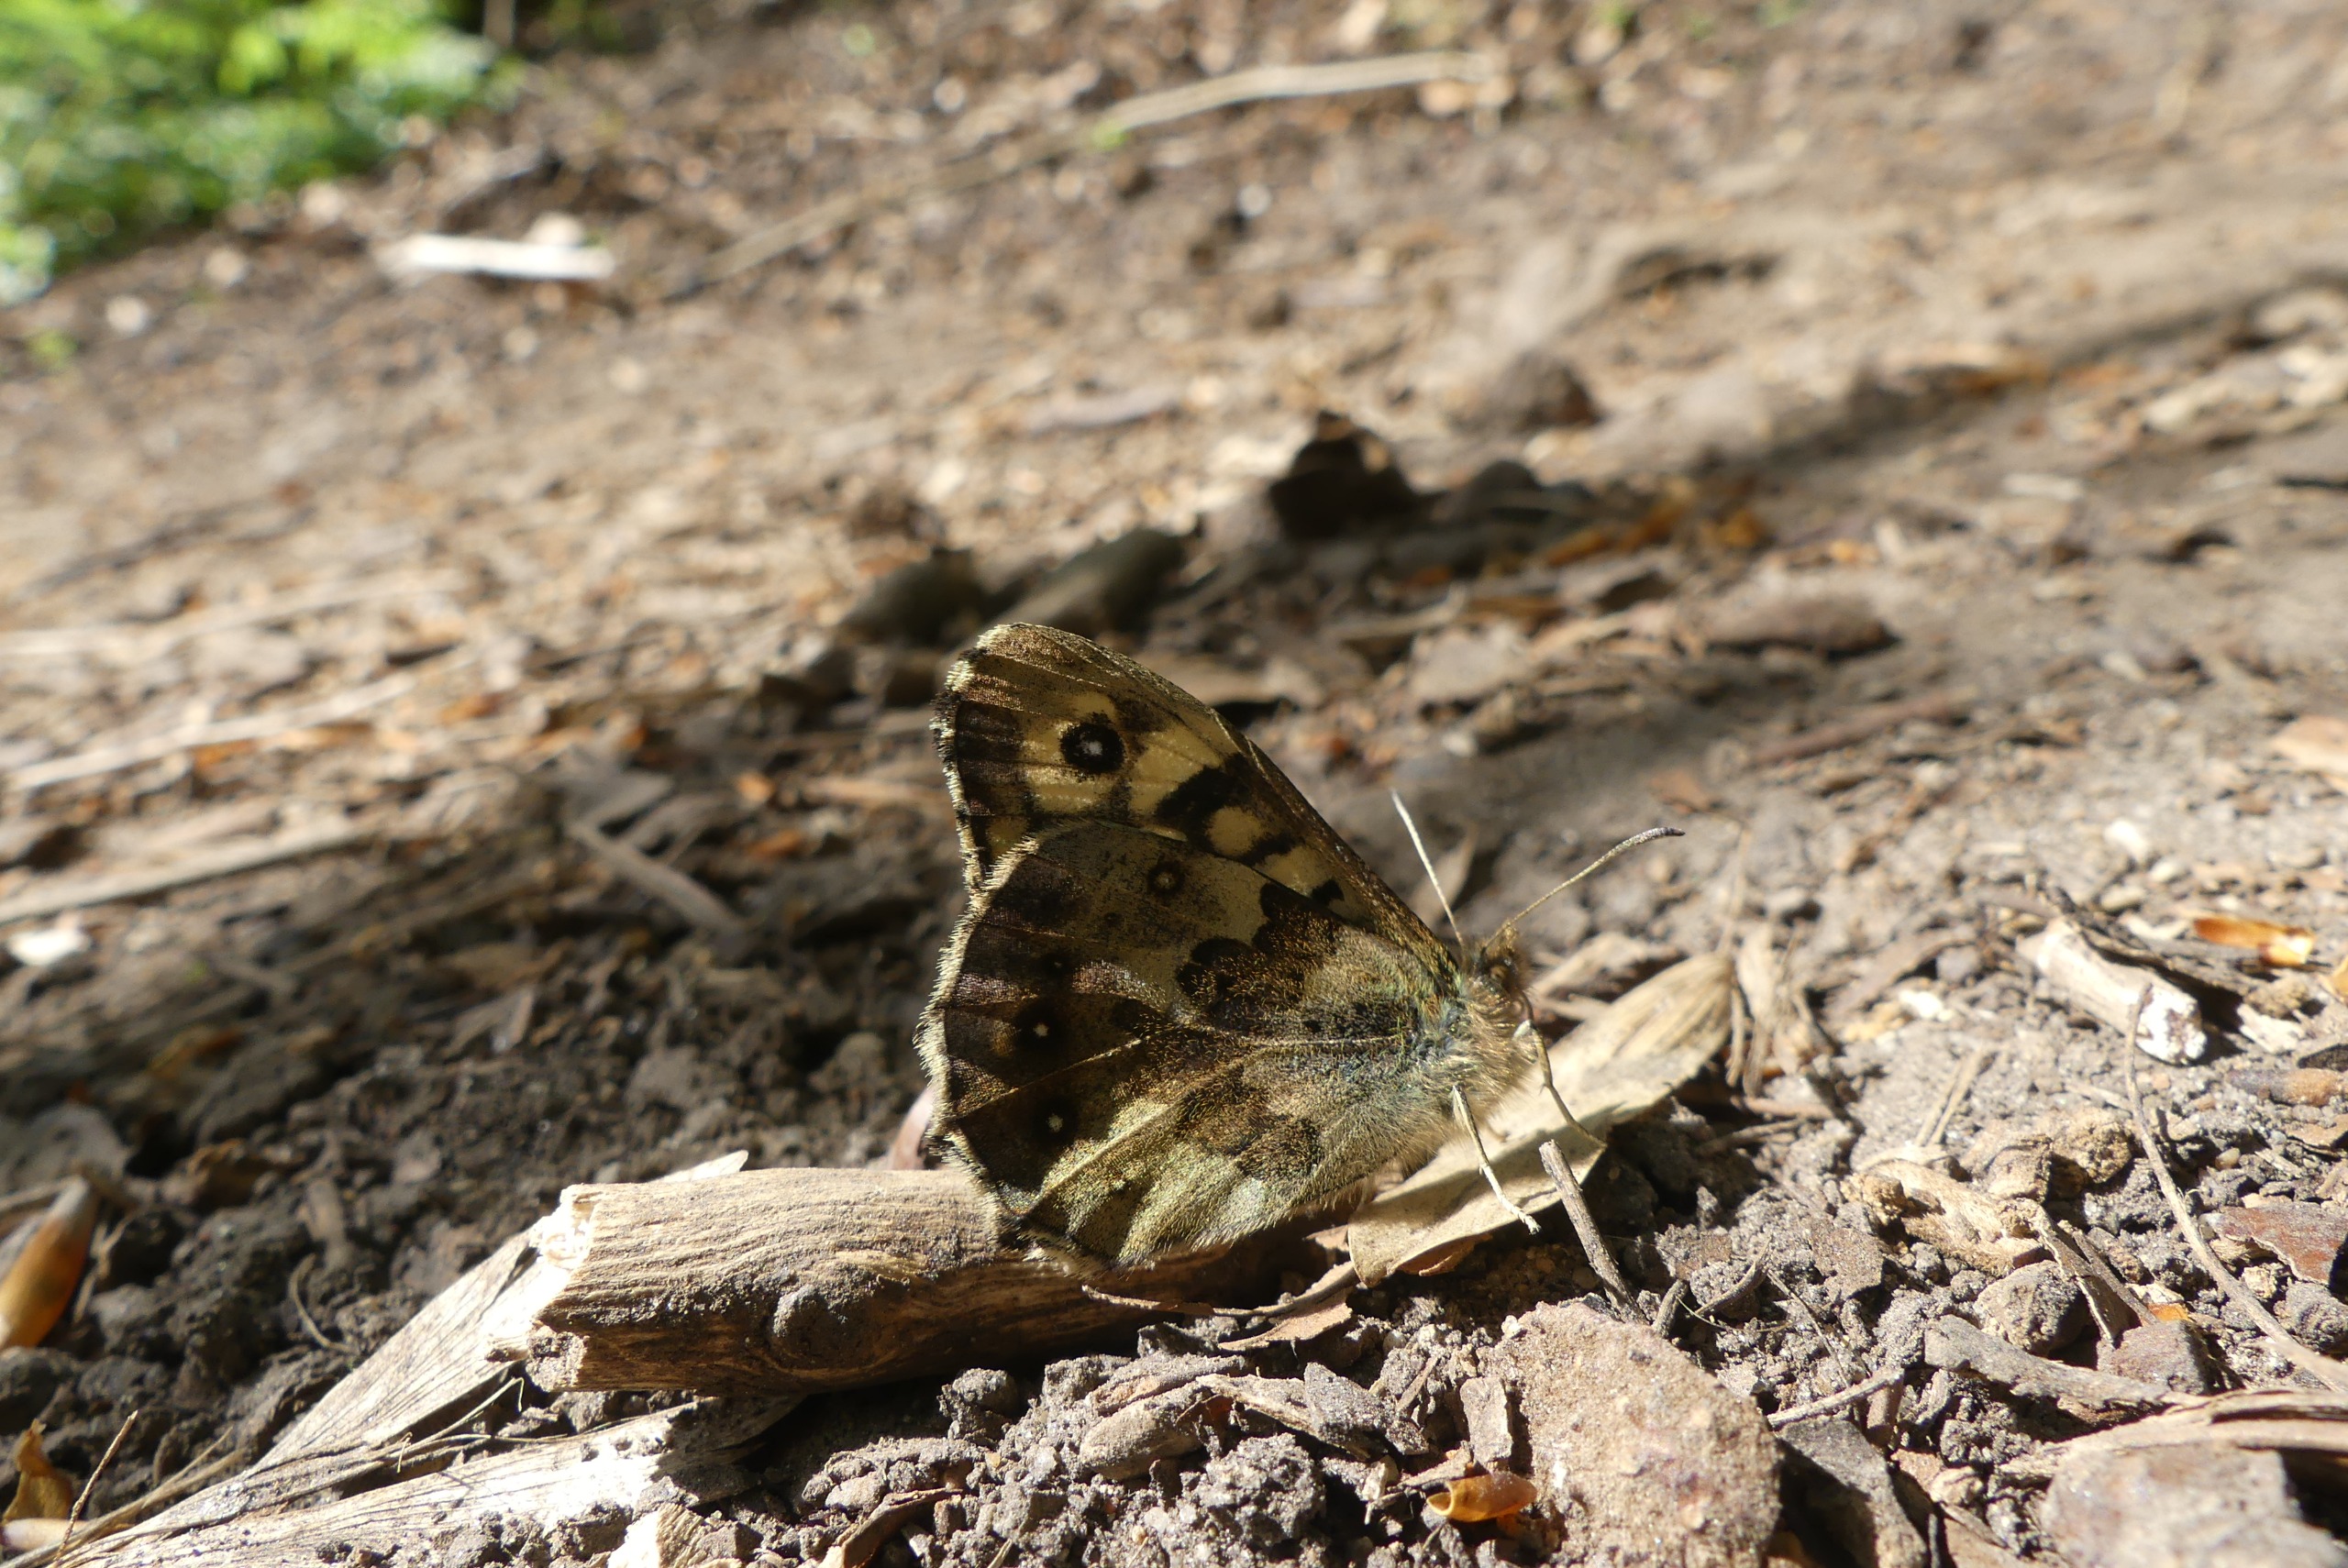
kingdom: Animalia
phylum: Arthropoda
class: Insecta
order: Lepidoptera
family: Nymphalidae
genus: Pararge
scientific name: Pararge aegeria
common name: Skovrandøje
